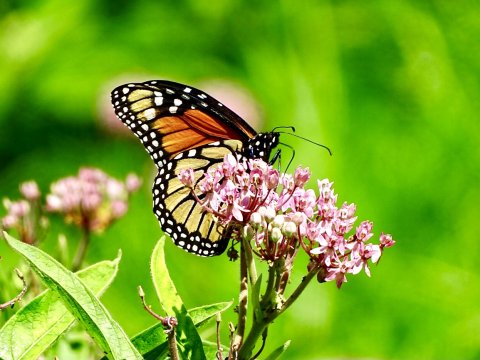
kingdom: Animalia
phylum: Arthropoda
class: Insecta
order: Lepidoptera
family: Nymphalidae
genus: Danaus
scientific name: Danaus plexippus
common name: Monarch
